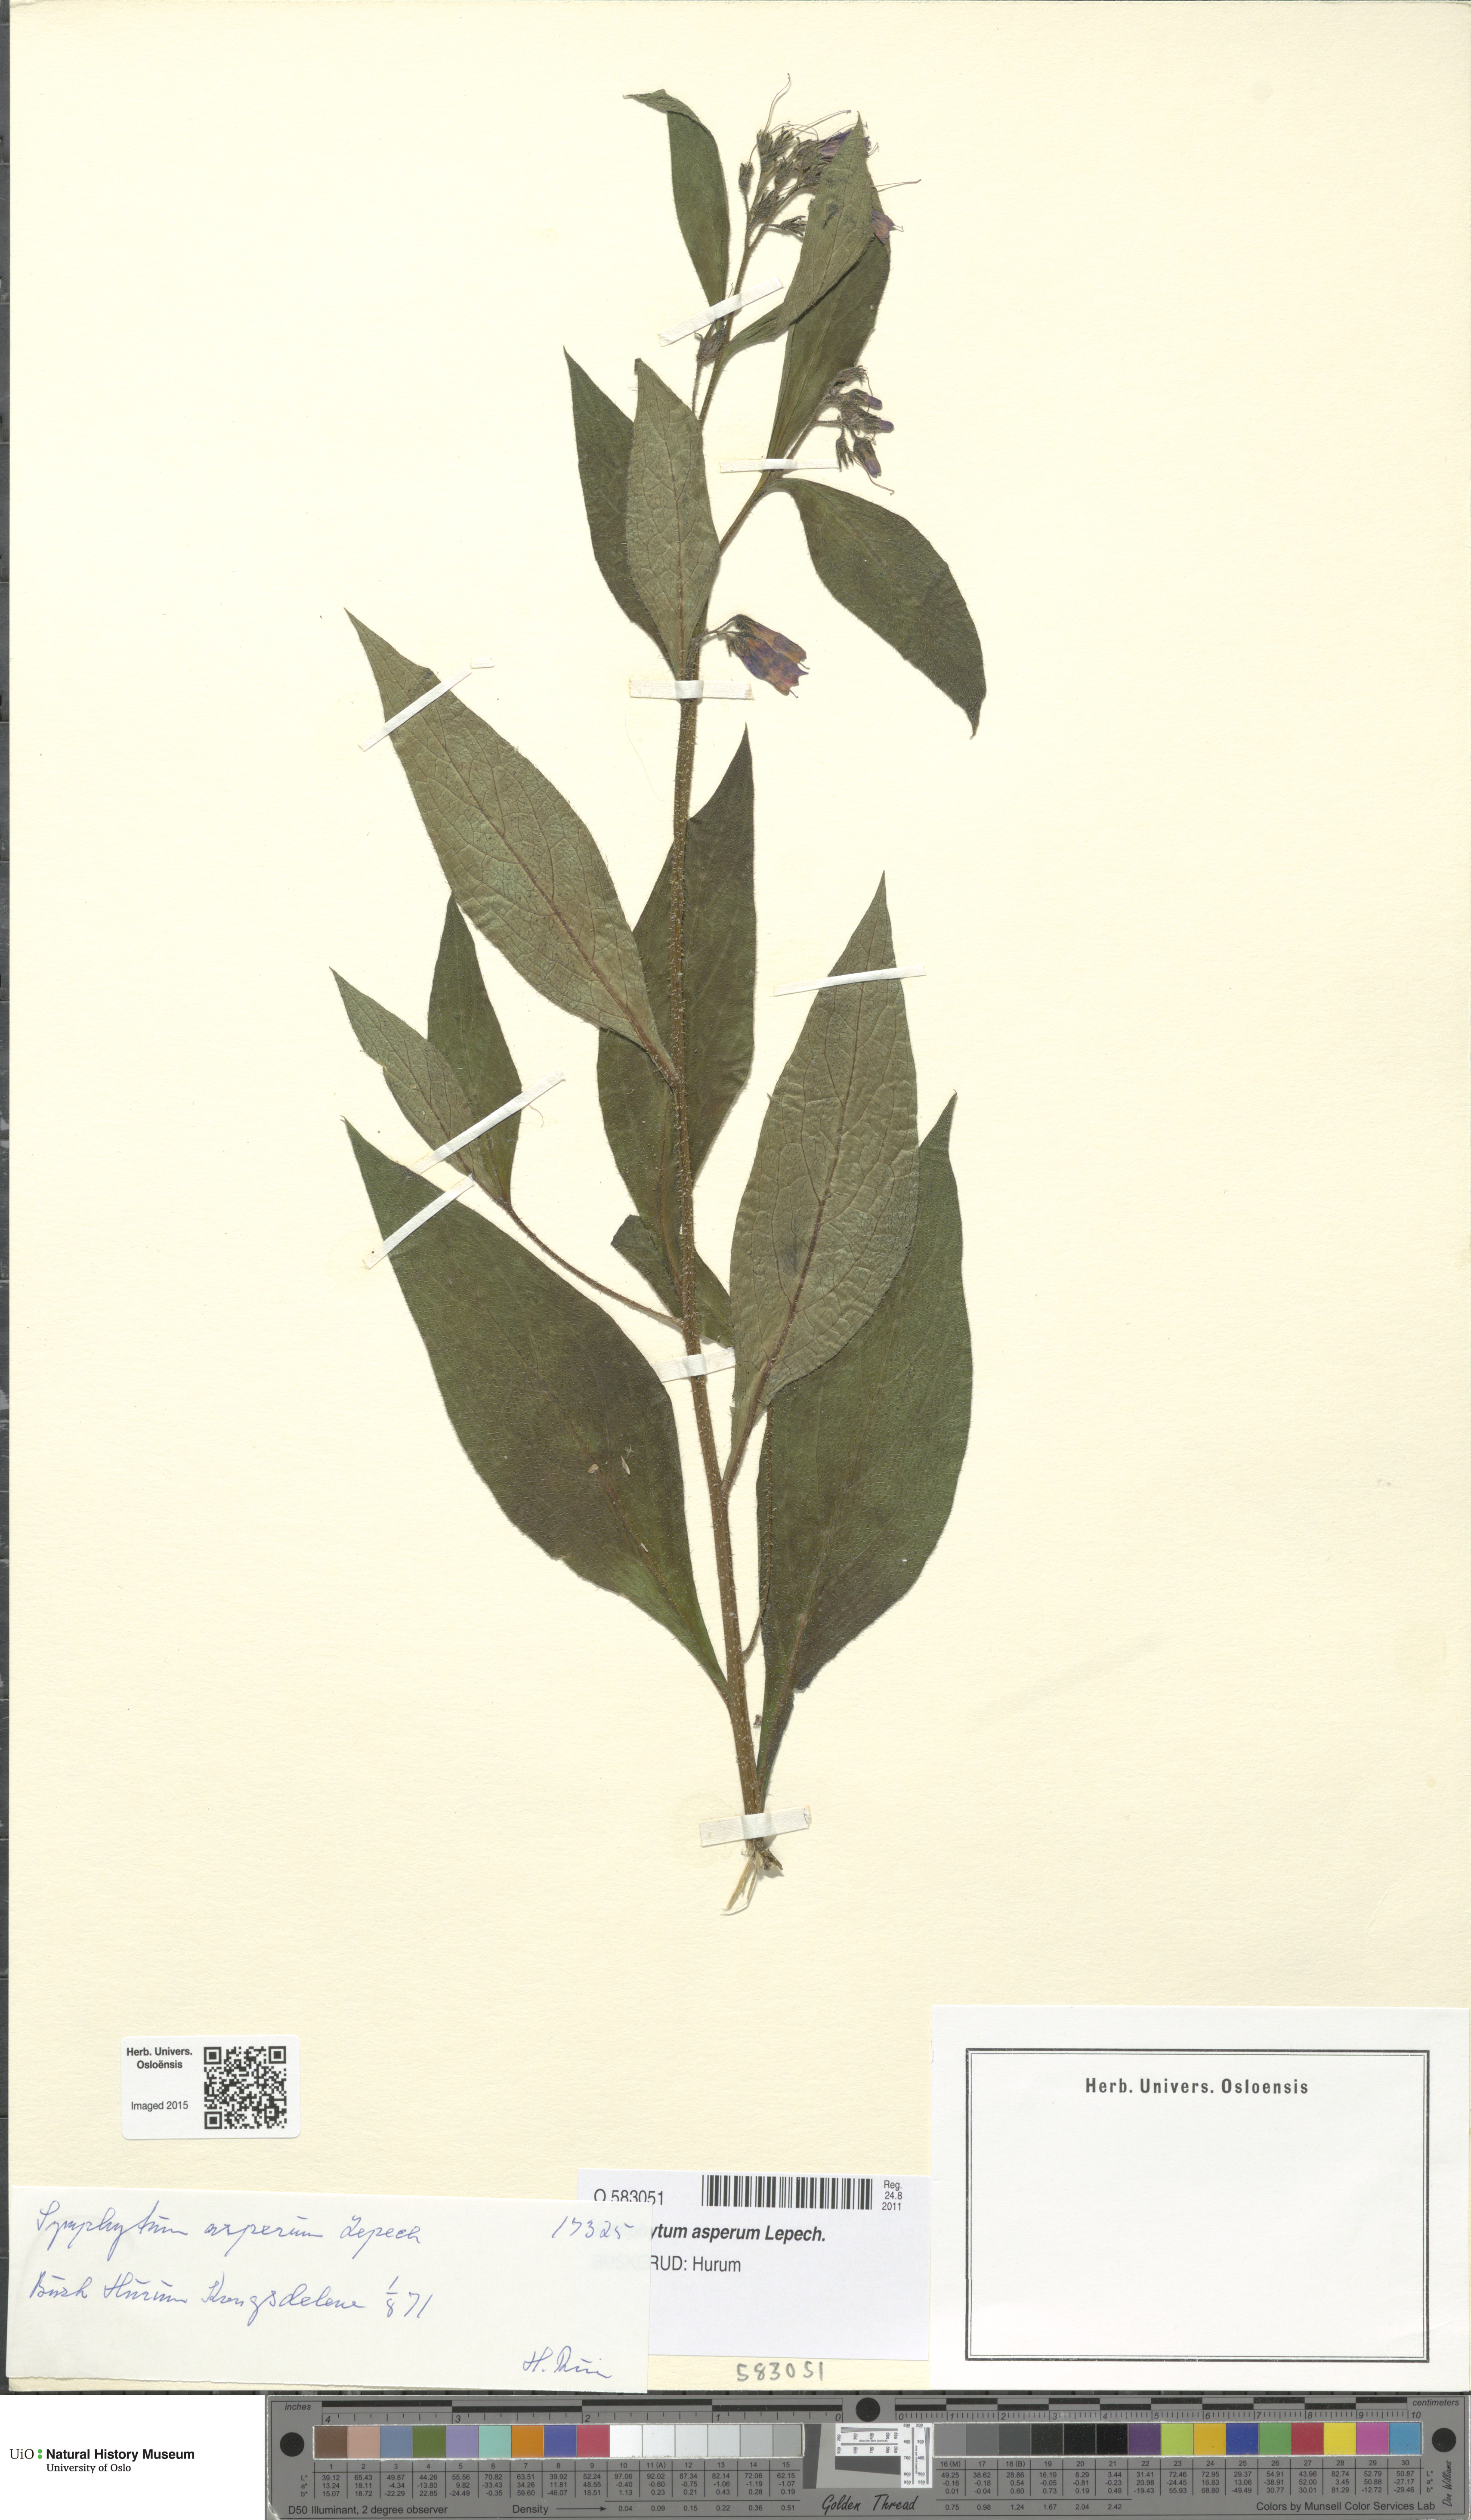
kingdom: Plantae
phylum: Tracheophyta
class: Magnoliopsida
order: Boraginales
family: Boraginaceae
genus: Symphytum
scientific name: Symphytum asperum
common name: Prickly comfrey
